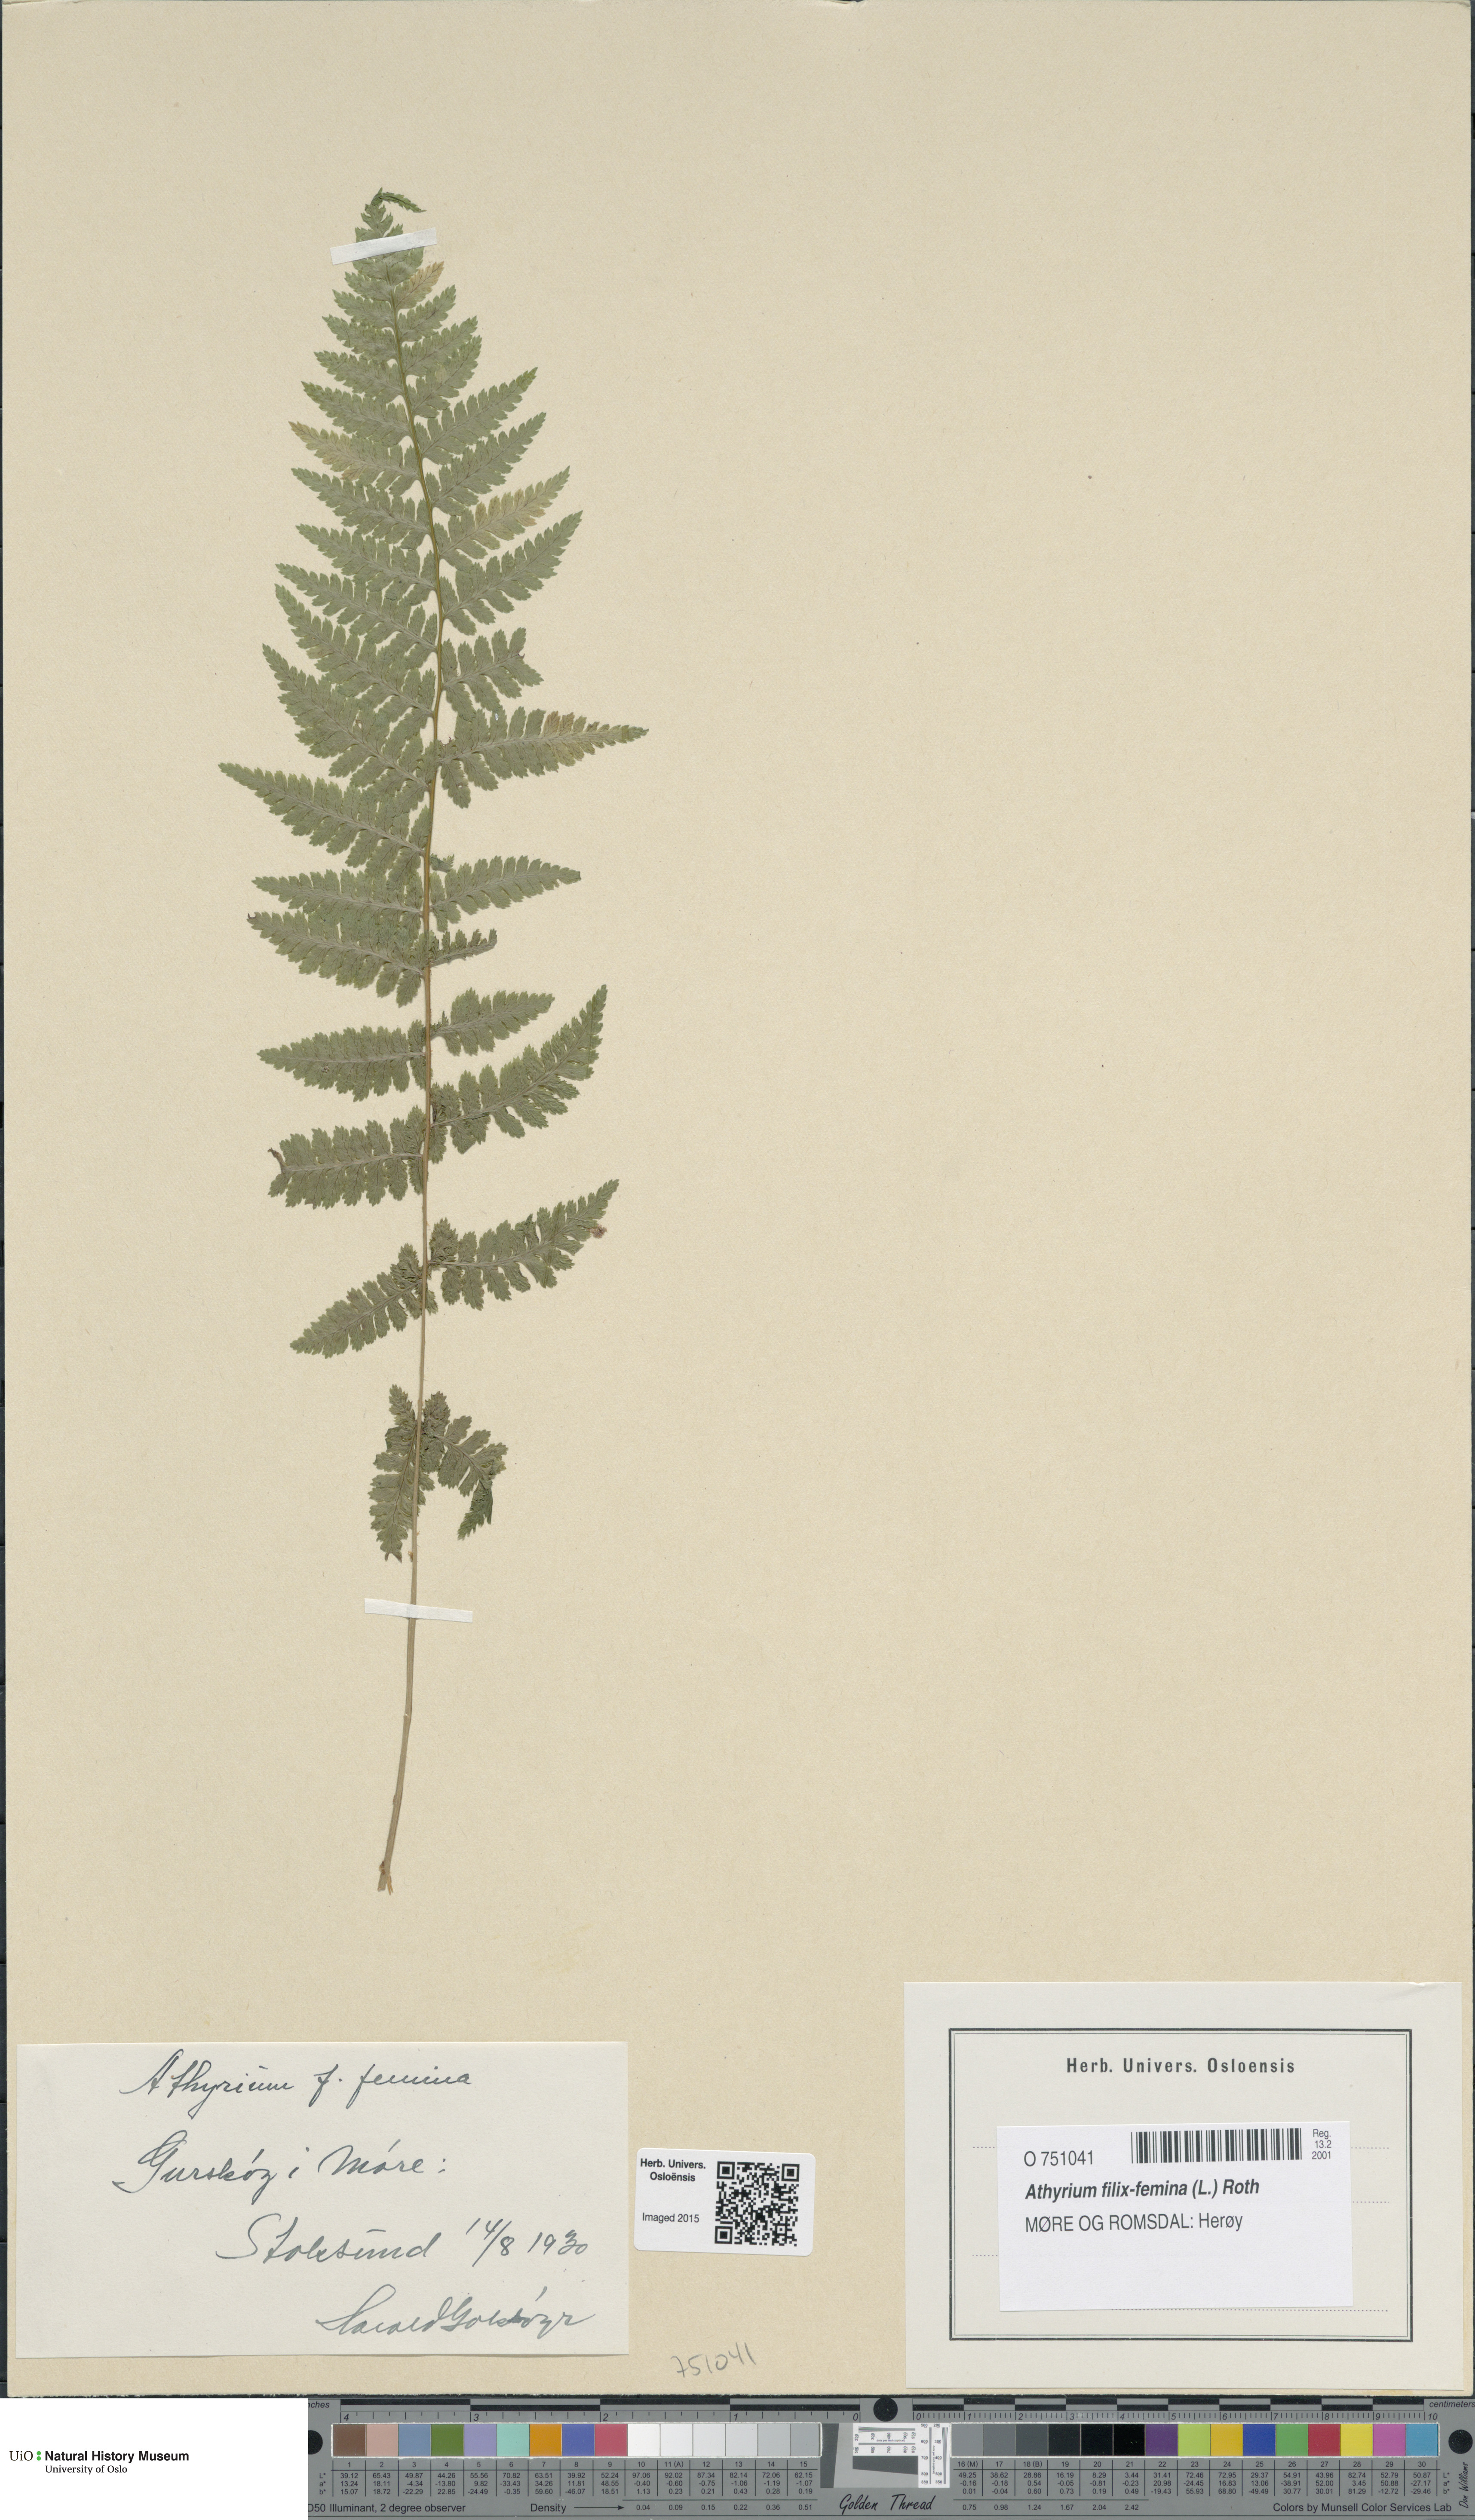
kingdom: Plantae
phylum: Tracheophyta
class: Polypodiopsida
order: Polypodiales
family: Athyriaceae
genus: Athyrium
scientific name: Athyrium filix-femina
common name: Lady fern
